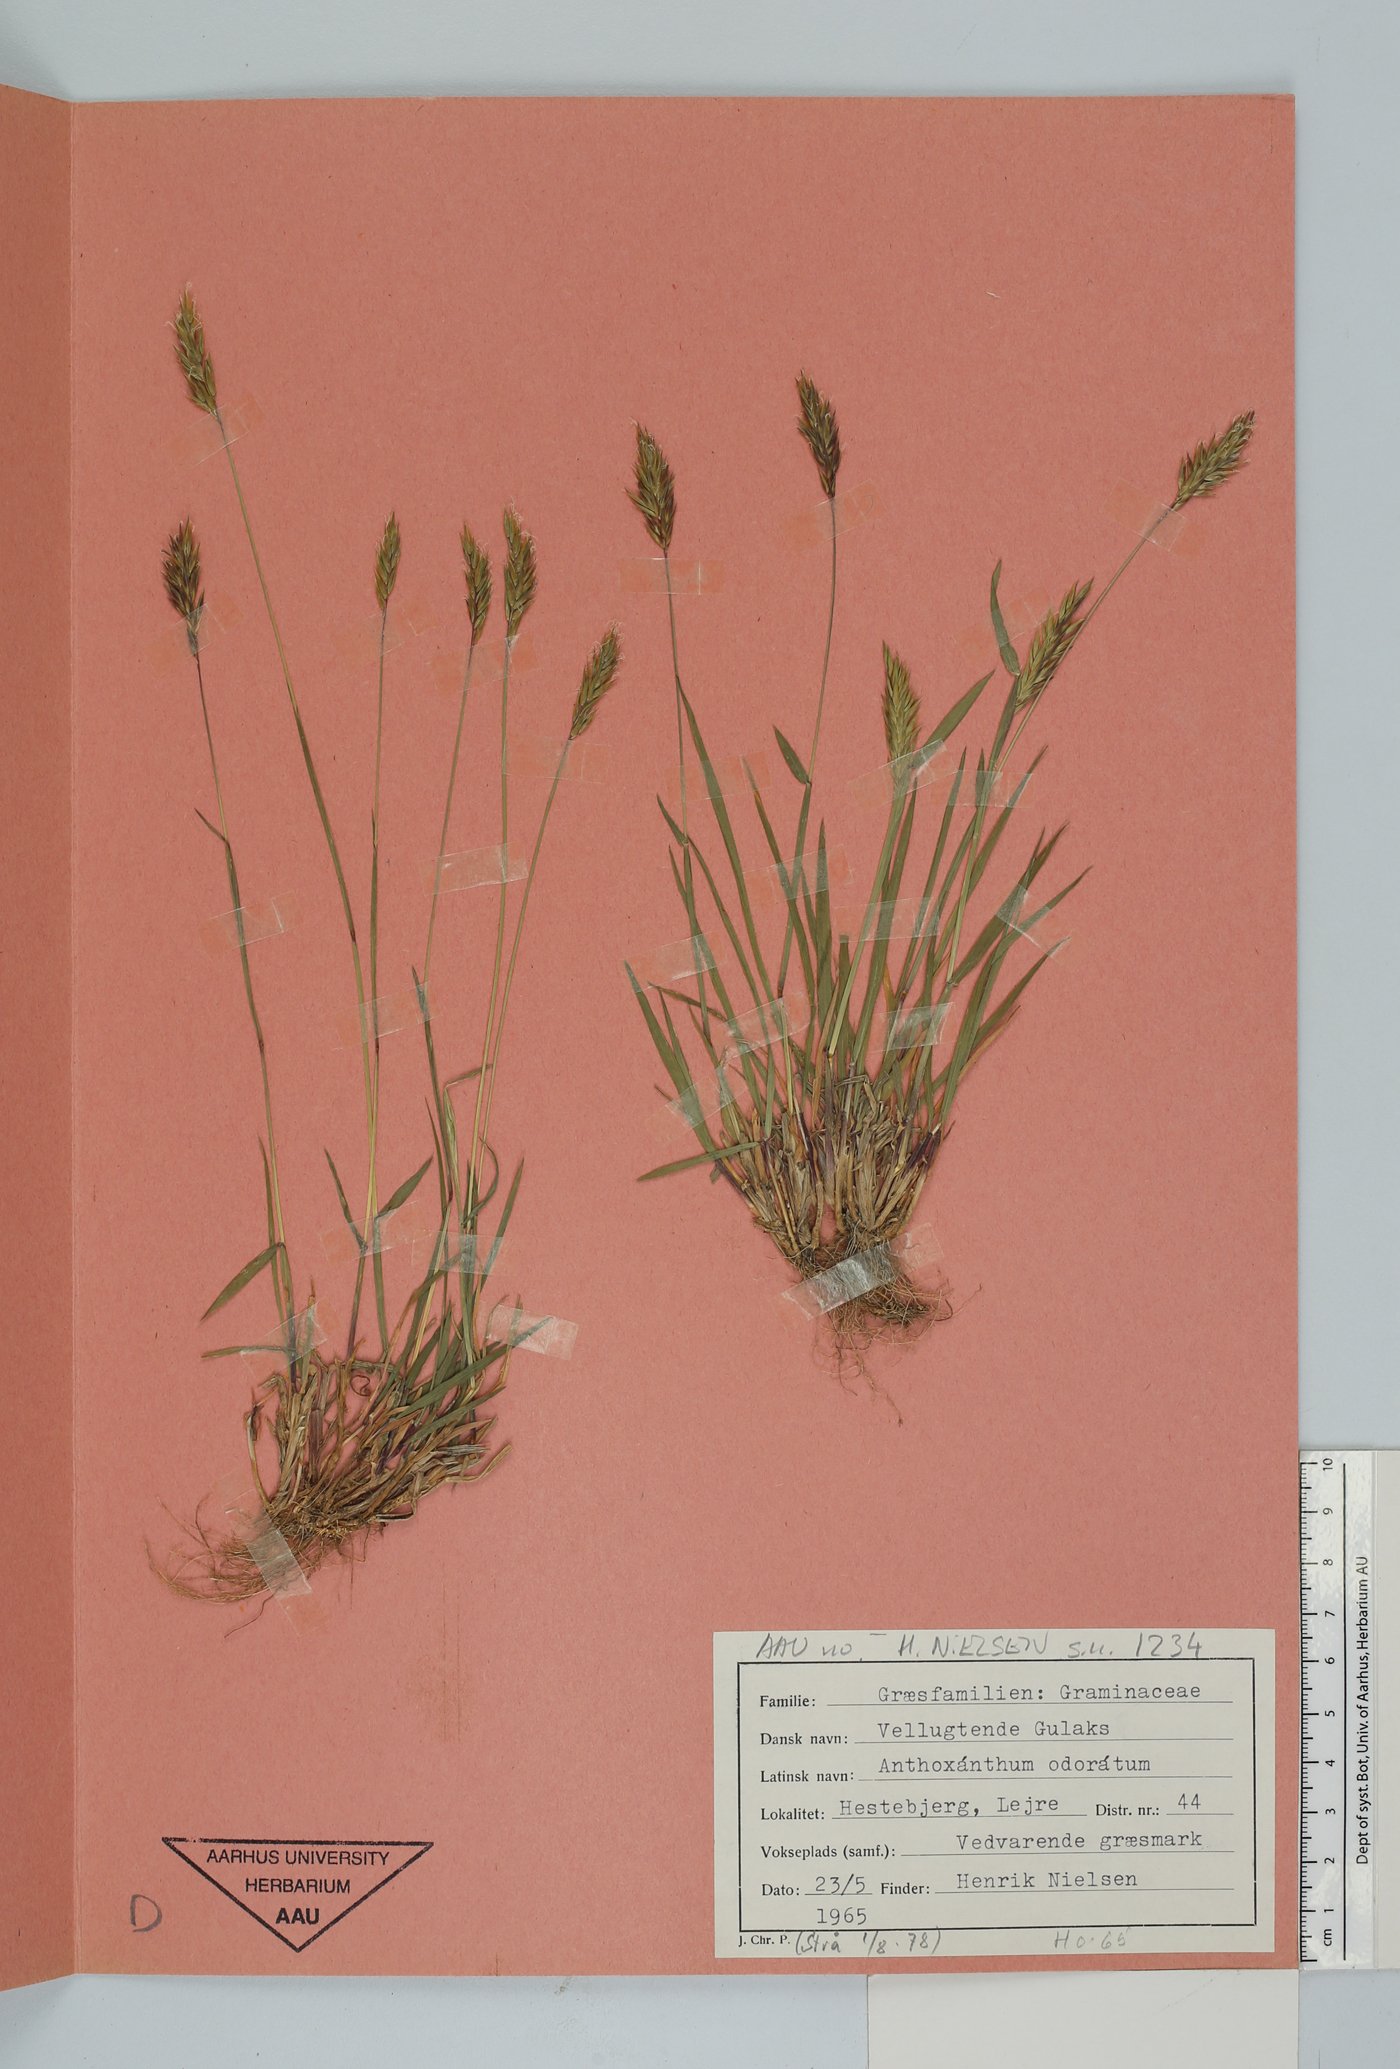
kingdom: Plantae
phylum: Tracheophyta
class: Liliopsida
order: Poales
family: Poaceae
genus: Anthoxanthum
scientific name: Anthoxanthum odoratum
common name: Sweet vernalgrass
